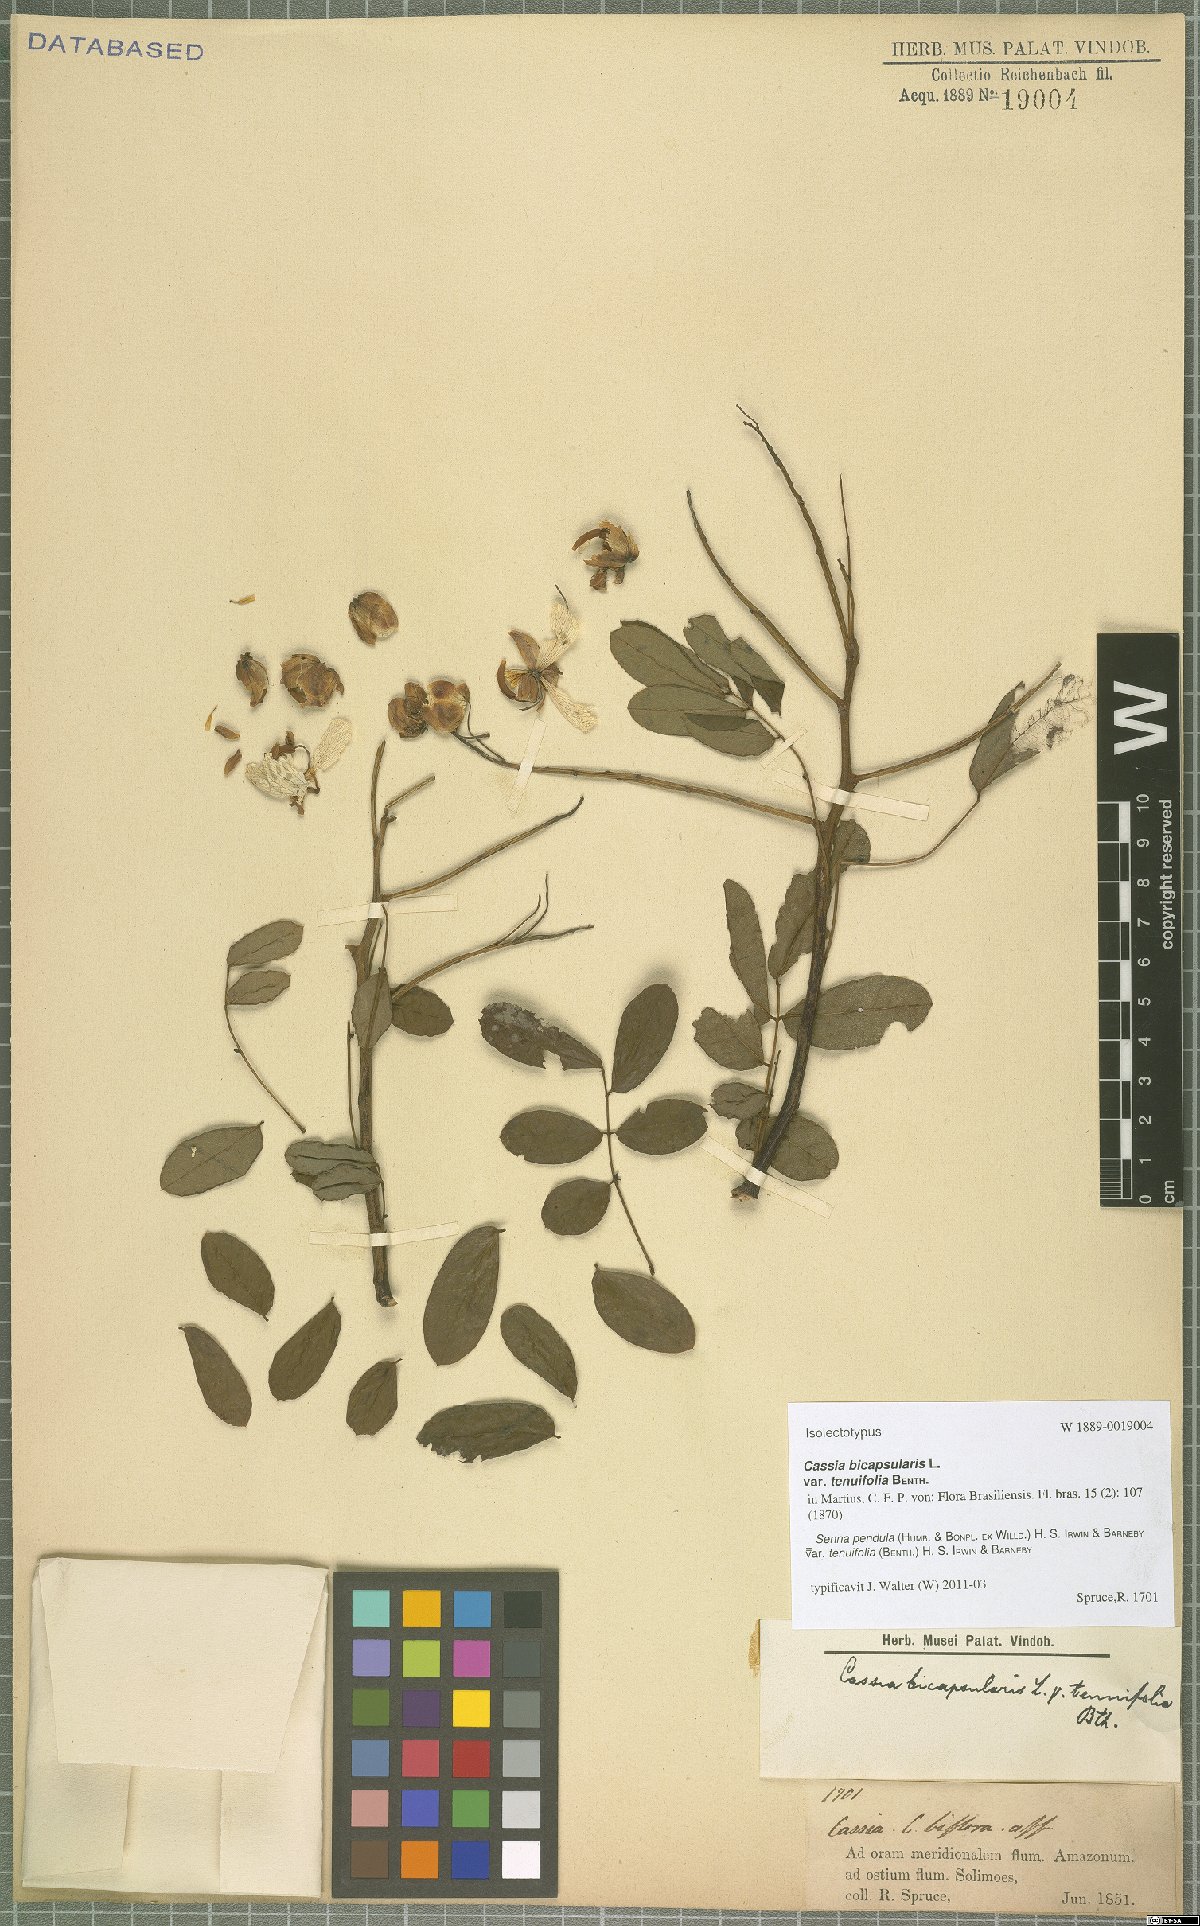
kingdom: Plantae
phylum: Tracheophyta
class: Magnoliopsida
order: Fabales
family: Fabaceae
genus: Senna
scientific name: Senna pendula
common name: Easter cassia
